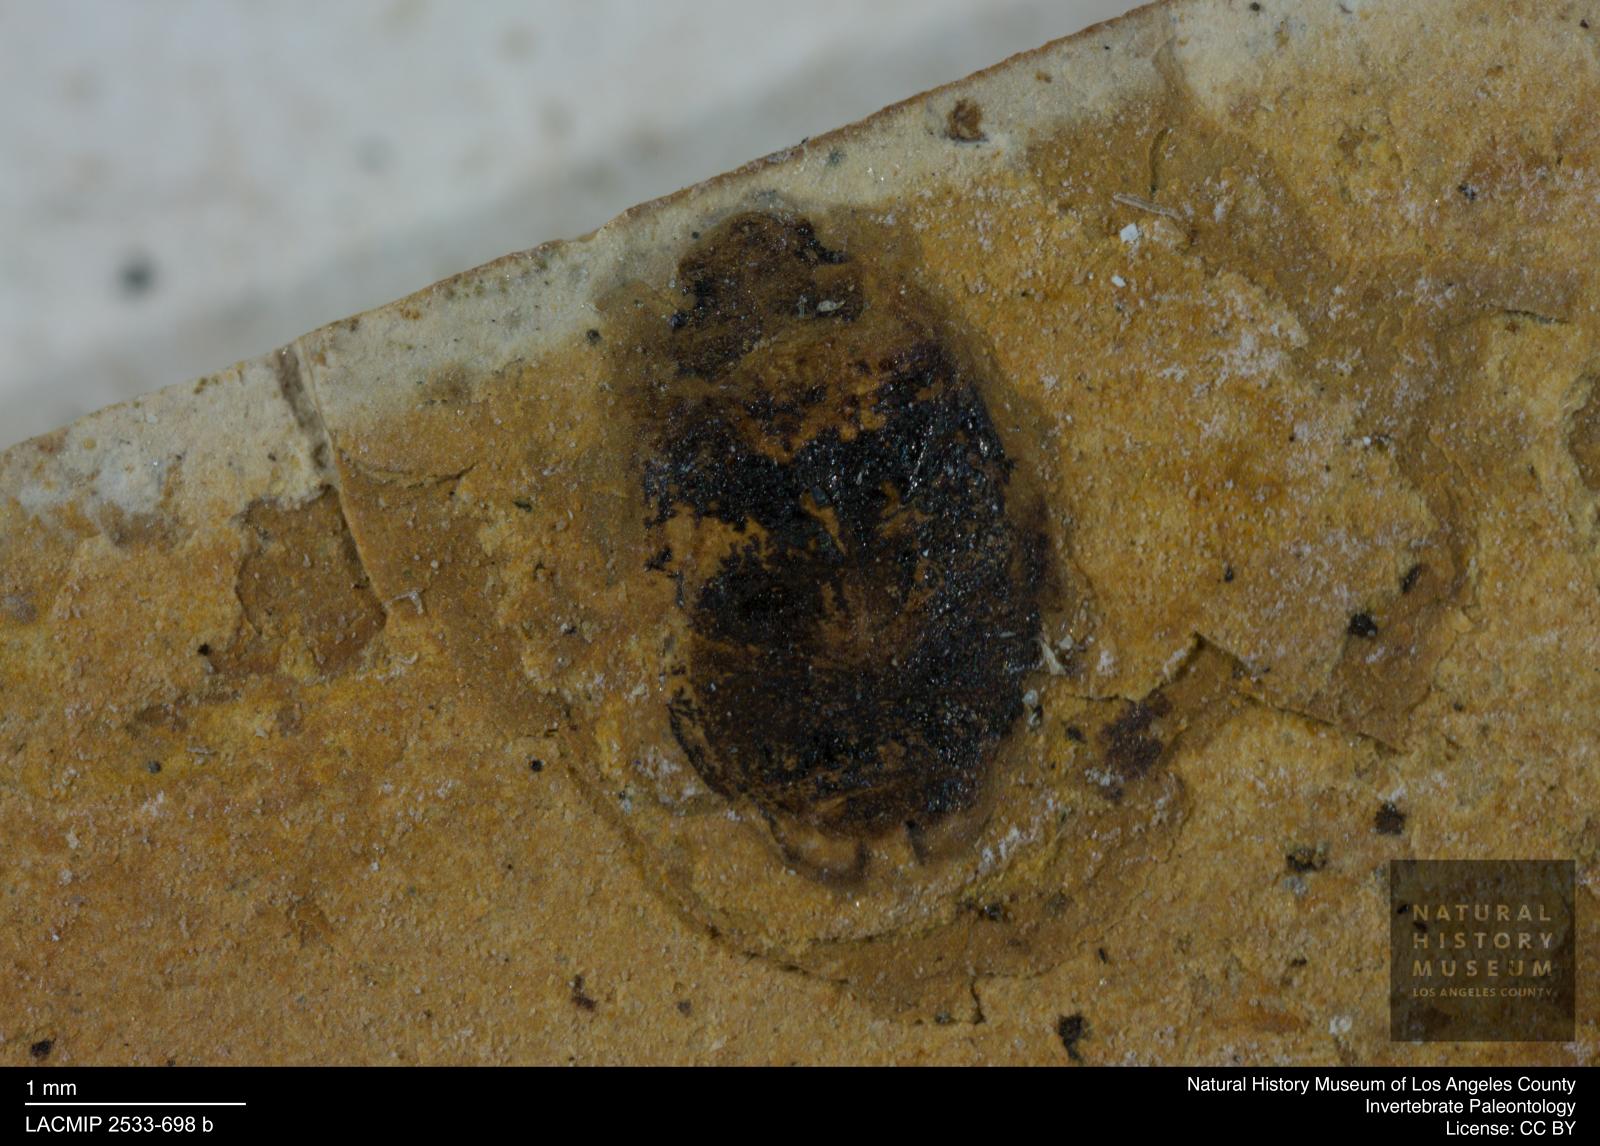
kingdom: Animalia
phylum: Arthropoda
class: Insecta
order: Coleoptera
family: Dytiscidae
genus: Oreodytes
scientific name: Oreodytes cryptolineatus
